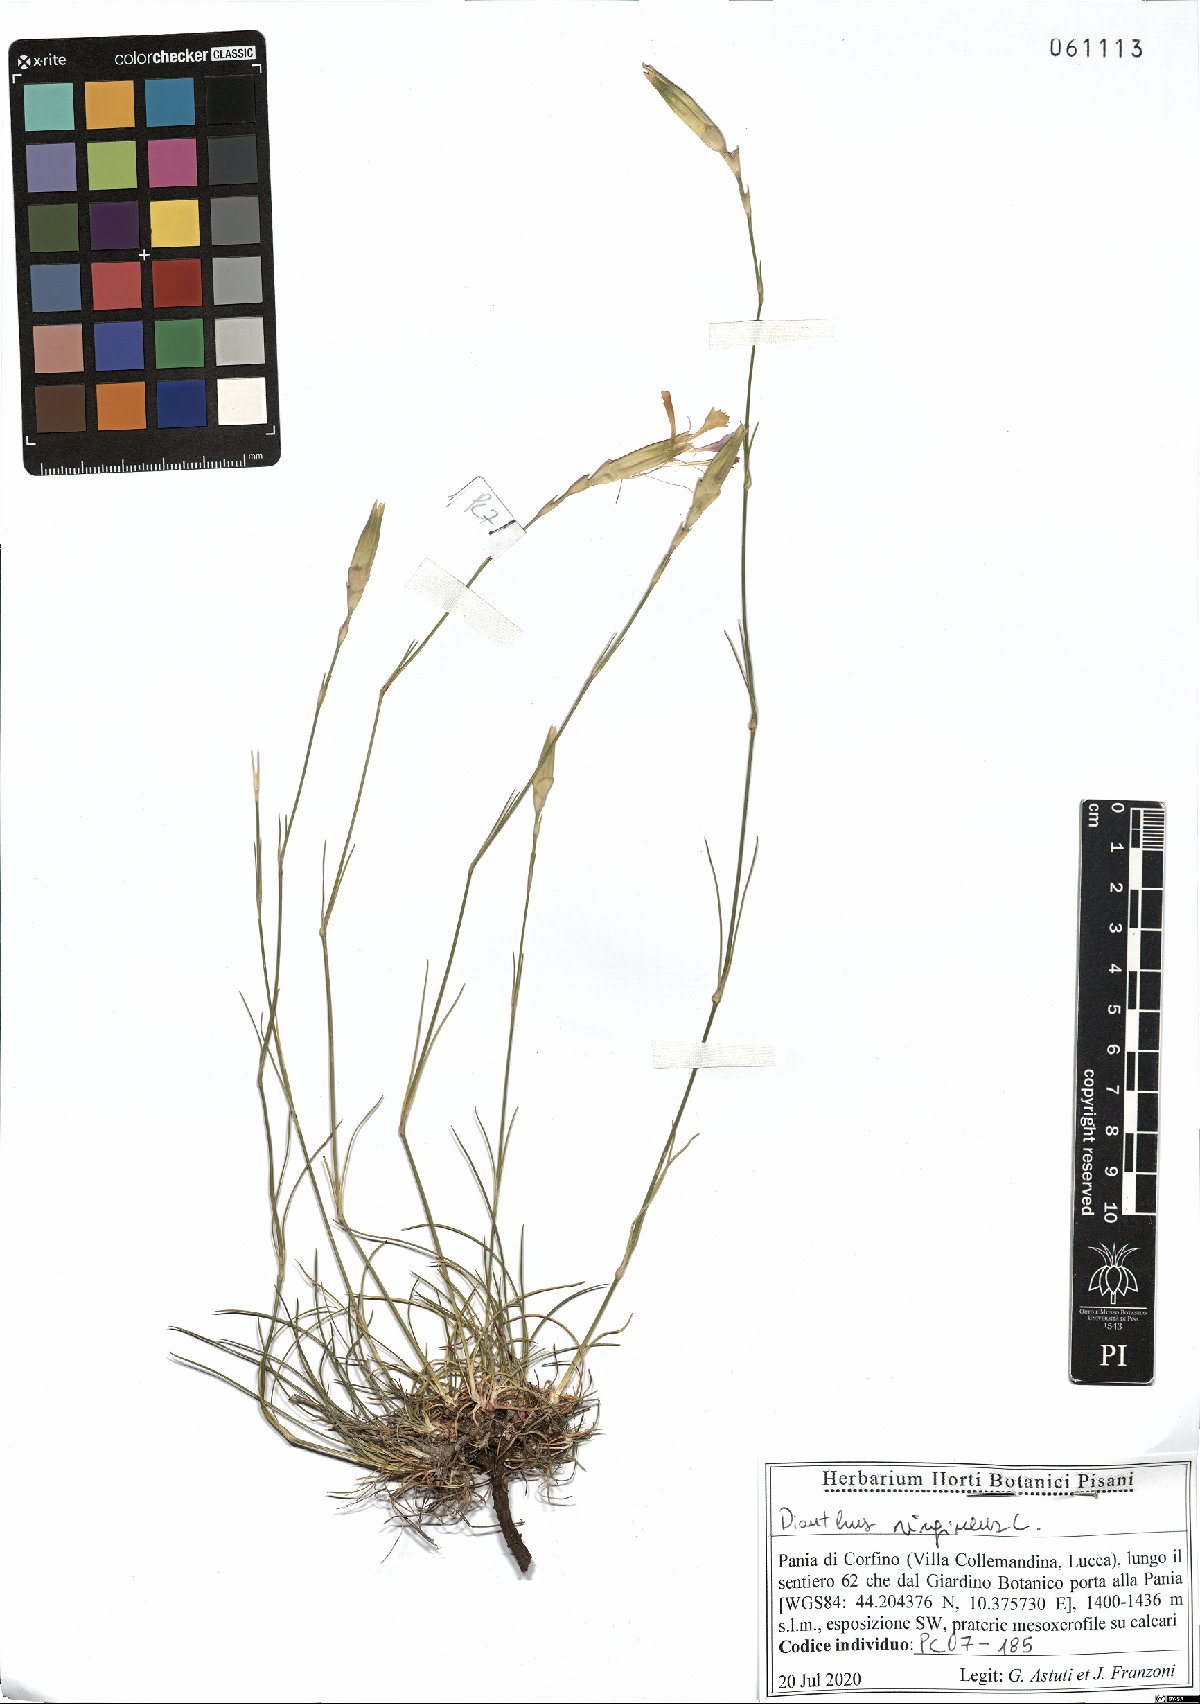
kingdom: Plantae
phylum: Tracheophyta
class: Magnoliopsida
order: Caryophyllales
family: Caryophyllaceae
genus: Dianthus
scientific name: Dianthus virgineus
